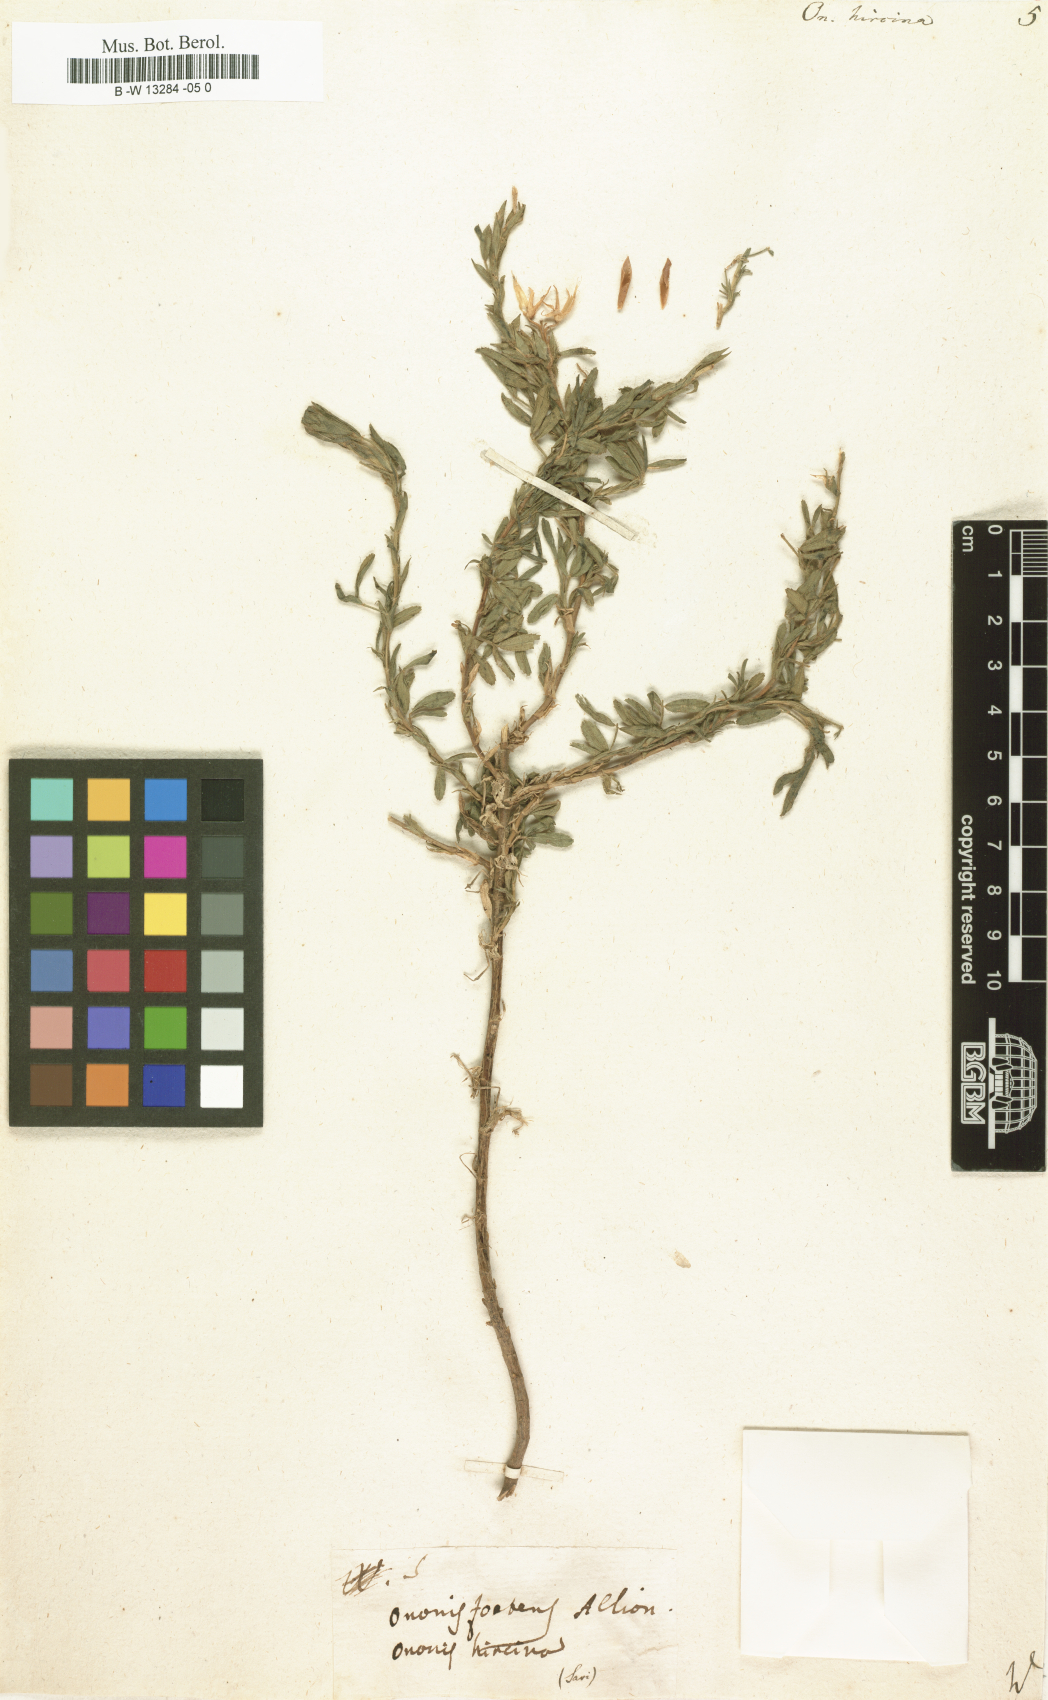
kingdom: Plantae
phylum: Tracheophyta
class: Magnoliopsida
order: Fabales
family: Fabaceae
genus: Ononis
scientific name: Ononis arvensis
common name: Field restharrow
